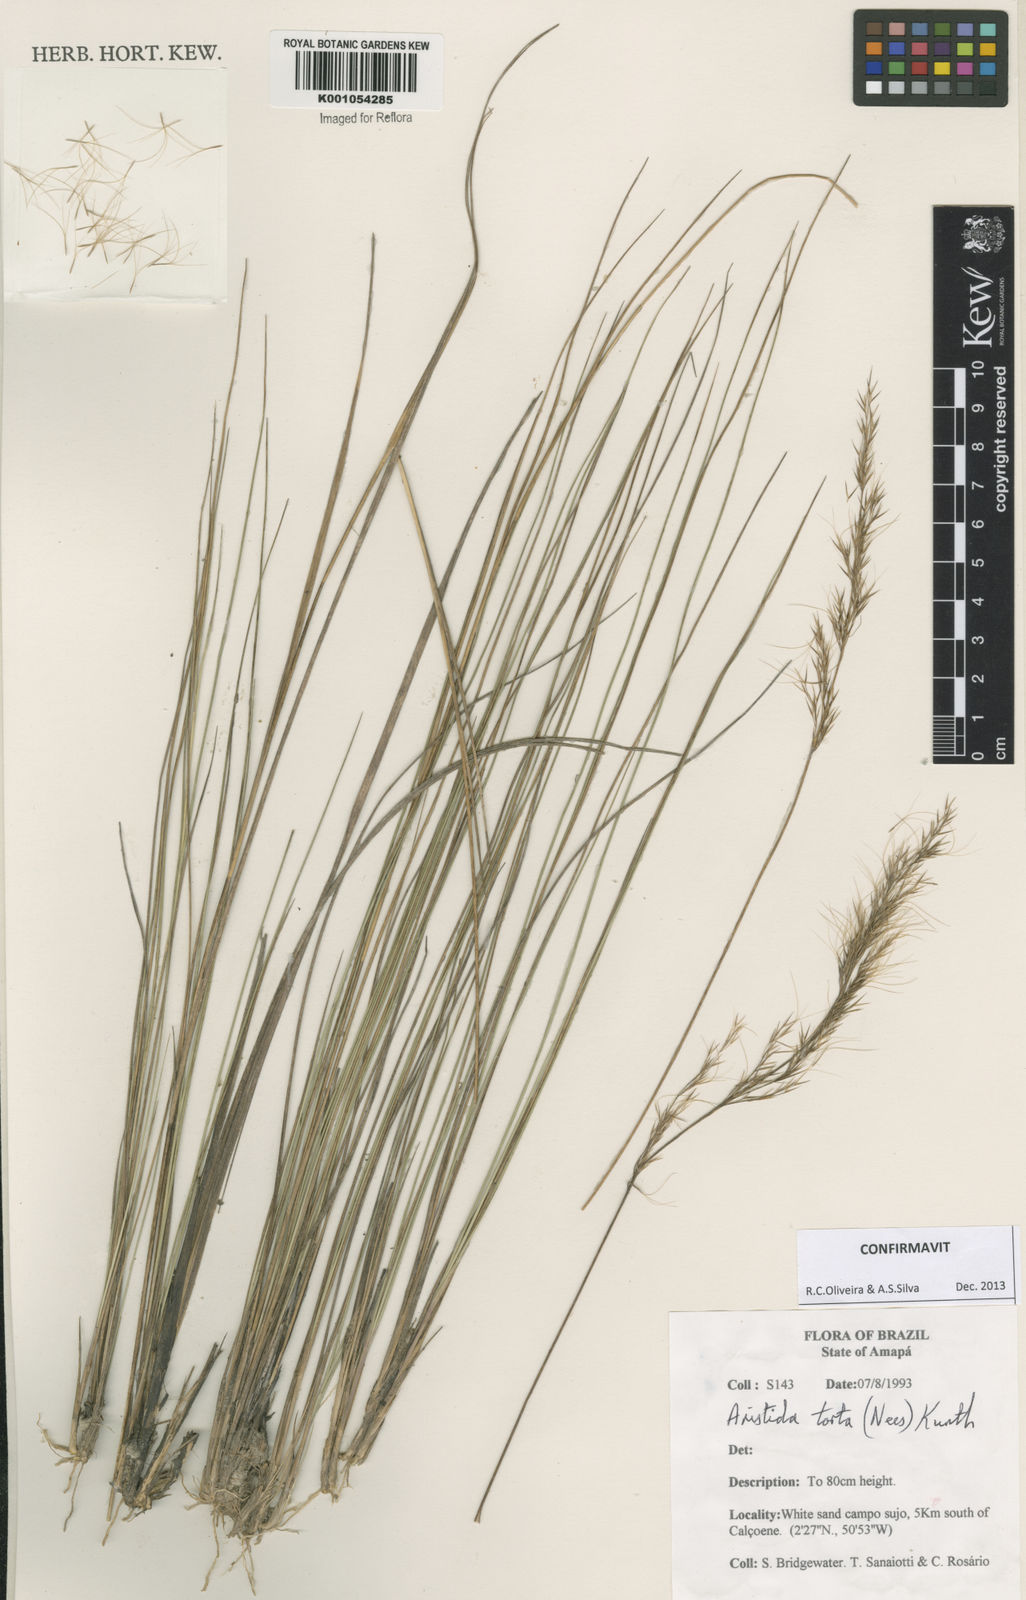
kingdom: Plantae
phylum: Tracheophyta
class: Liliopsida
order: Poales
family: Poaceae
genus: Aristida
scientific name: Aristida torta
